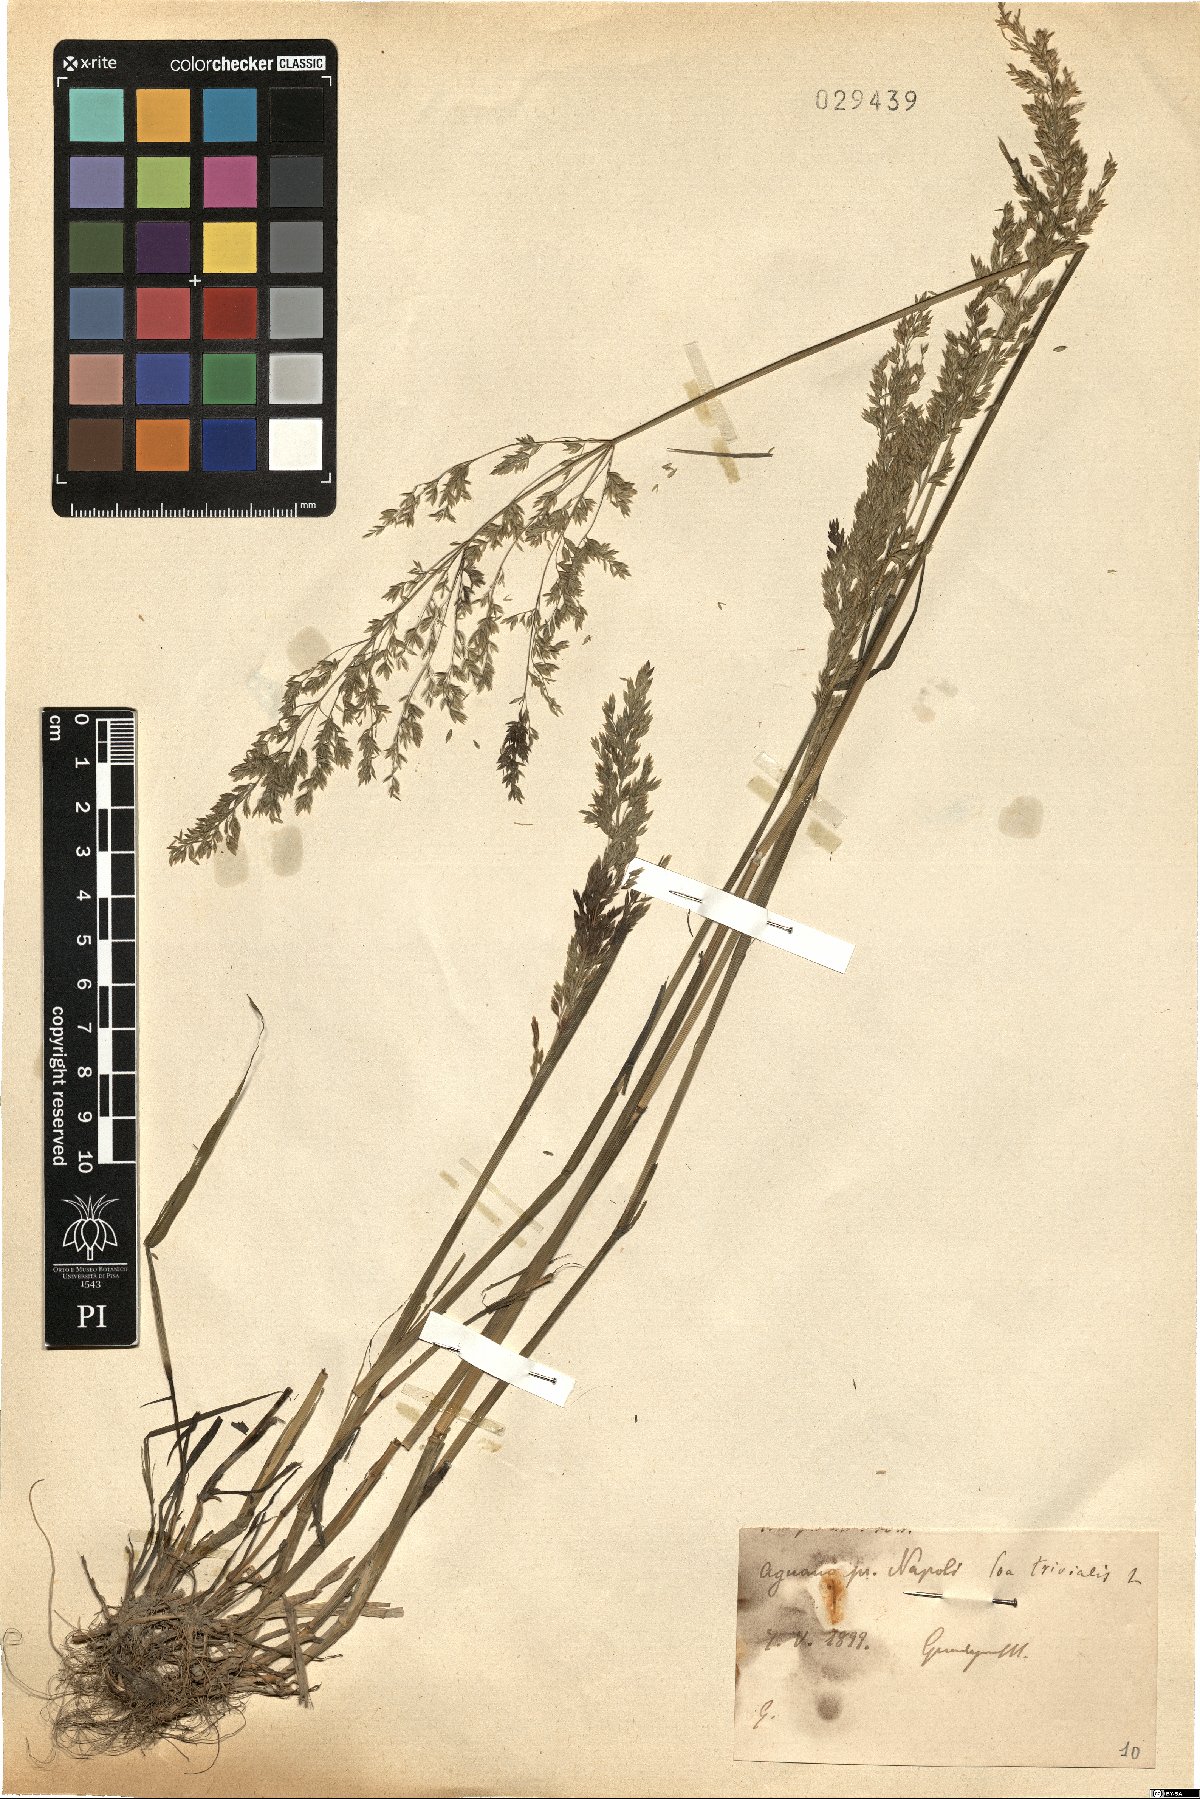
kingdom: Plantae
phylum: Tracheophyta
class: Liliopsida
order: Poales
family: Poaceae
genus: Poa
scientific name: Poa trivialis
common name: Rough bluegrass
